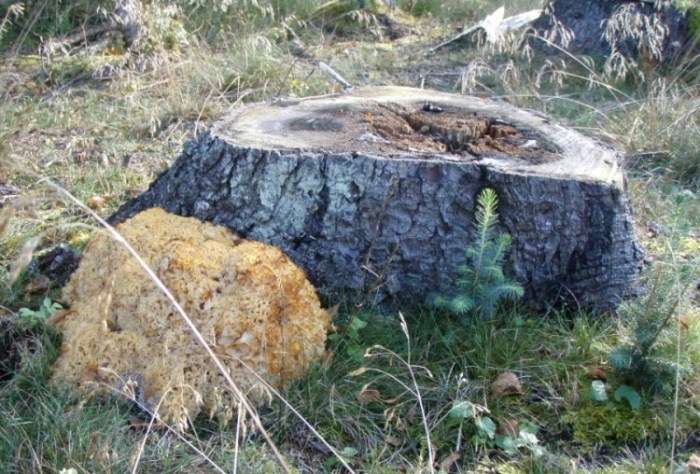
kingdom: Fungi
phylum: Basidiomycota
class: Agaricomycetes
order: Polyporales
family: Sparassidaceae
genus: Sparassis
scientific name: Sparassis crispa
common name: kruset blomkålssvamp
